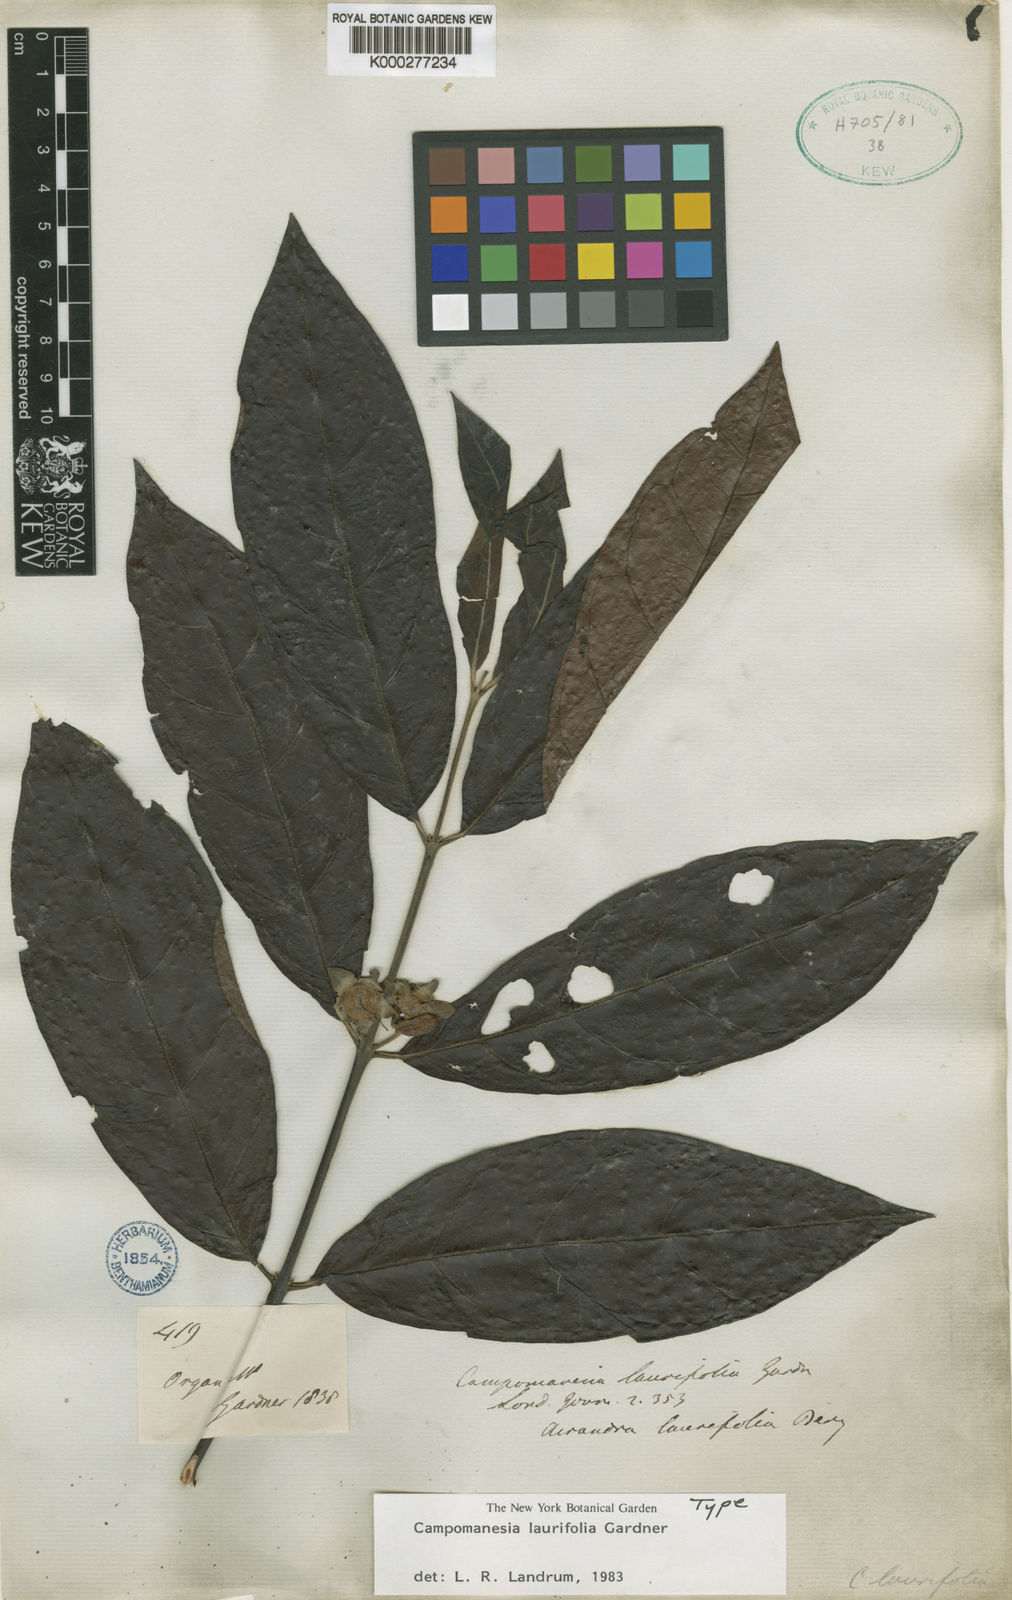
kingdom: Plantae
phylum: Tracheophyta
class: Magnoliopsida
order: Myrtales
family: Myrtaceae
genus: Campomanesia
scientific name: Campomanesia laurifolia
